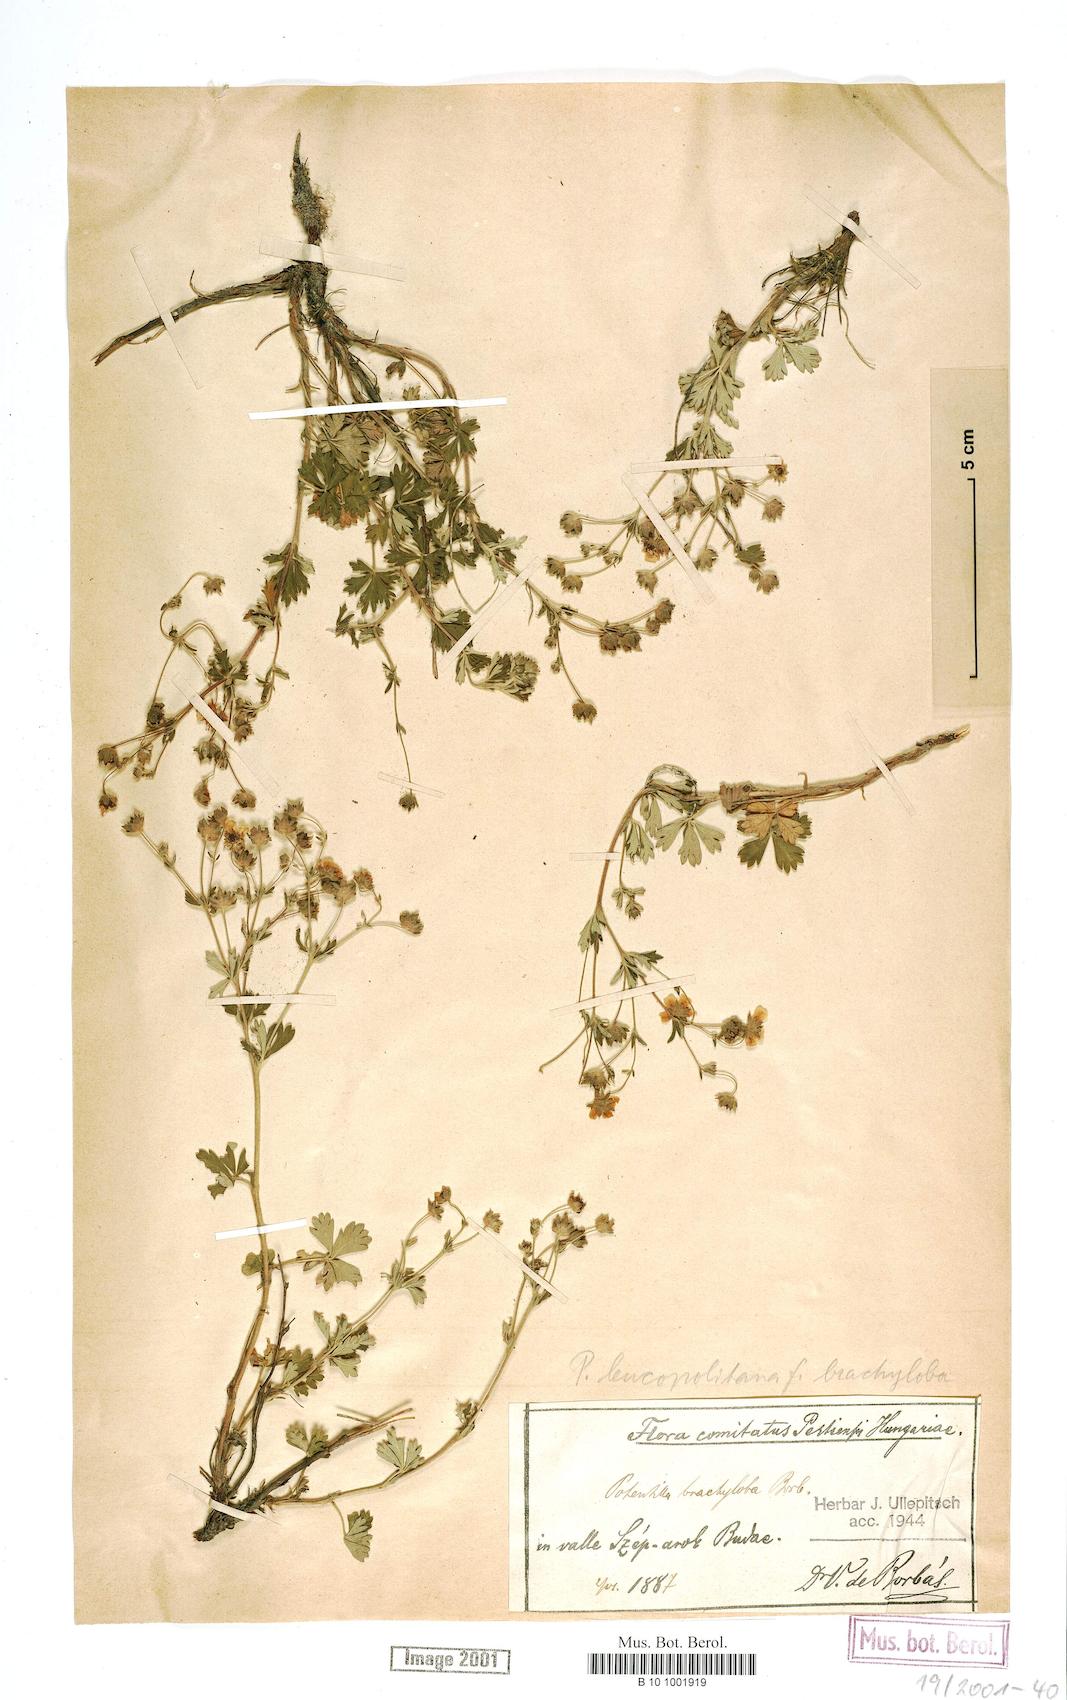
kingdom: Plantae
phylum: Tracheophyta
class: Magnoliopsida
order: Rosales
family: Rosaceae
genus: Potentilla
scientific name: Potentilla brachyloba
